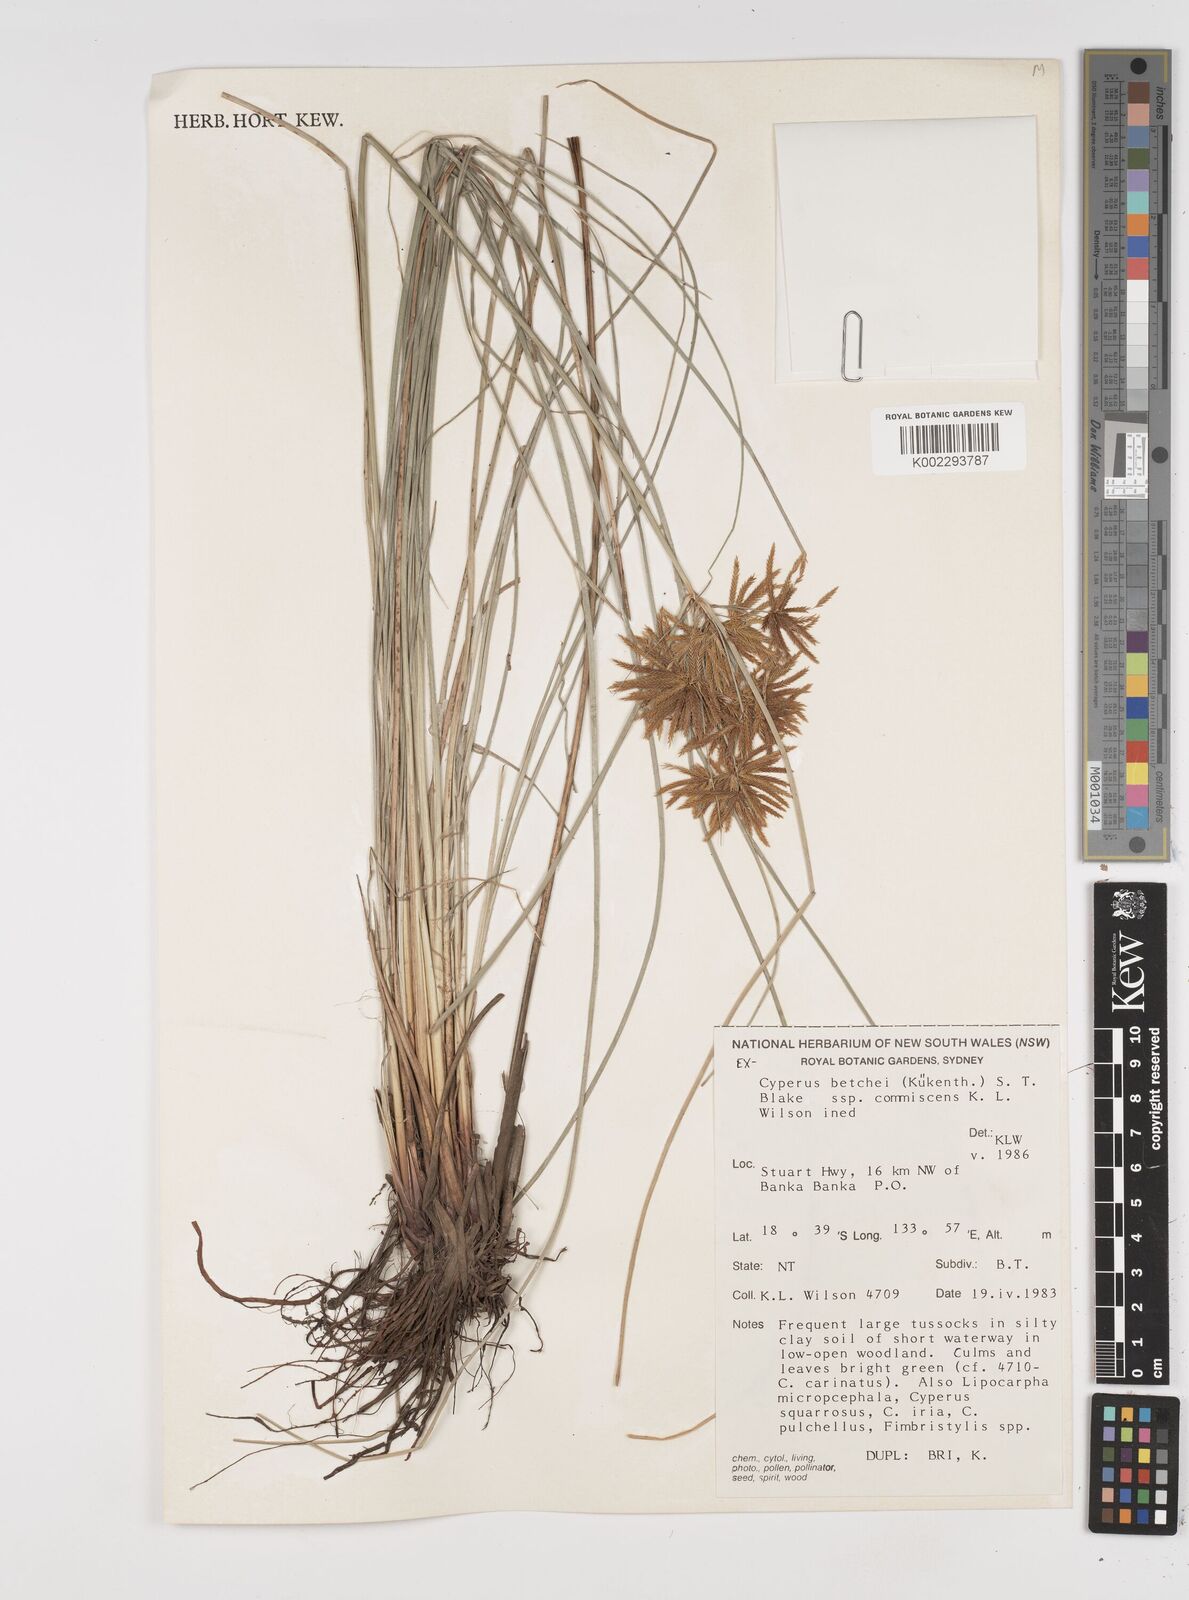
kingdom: Plantae
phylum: Tracheophyta
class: Liliopsida
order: Poales
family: Cyperaceae
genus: Cyperus
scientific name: Cyperus betchei
